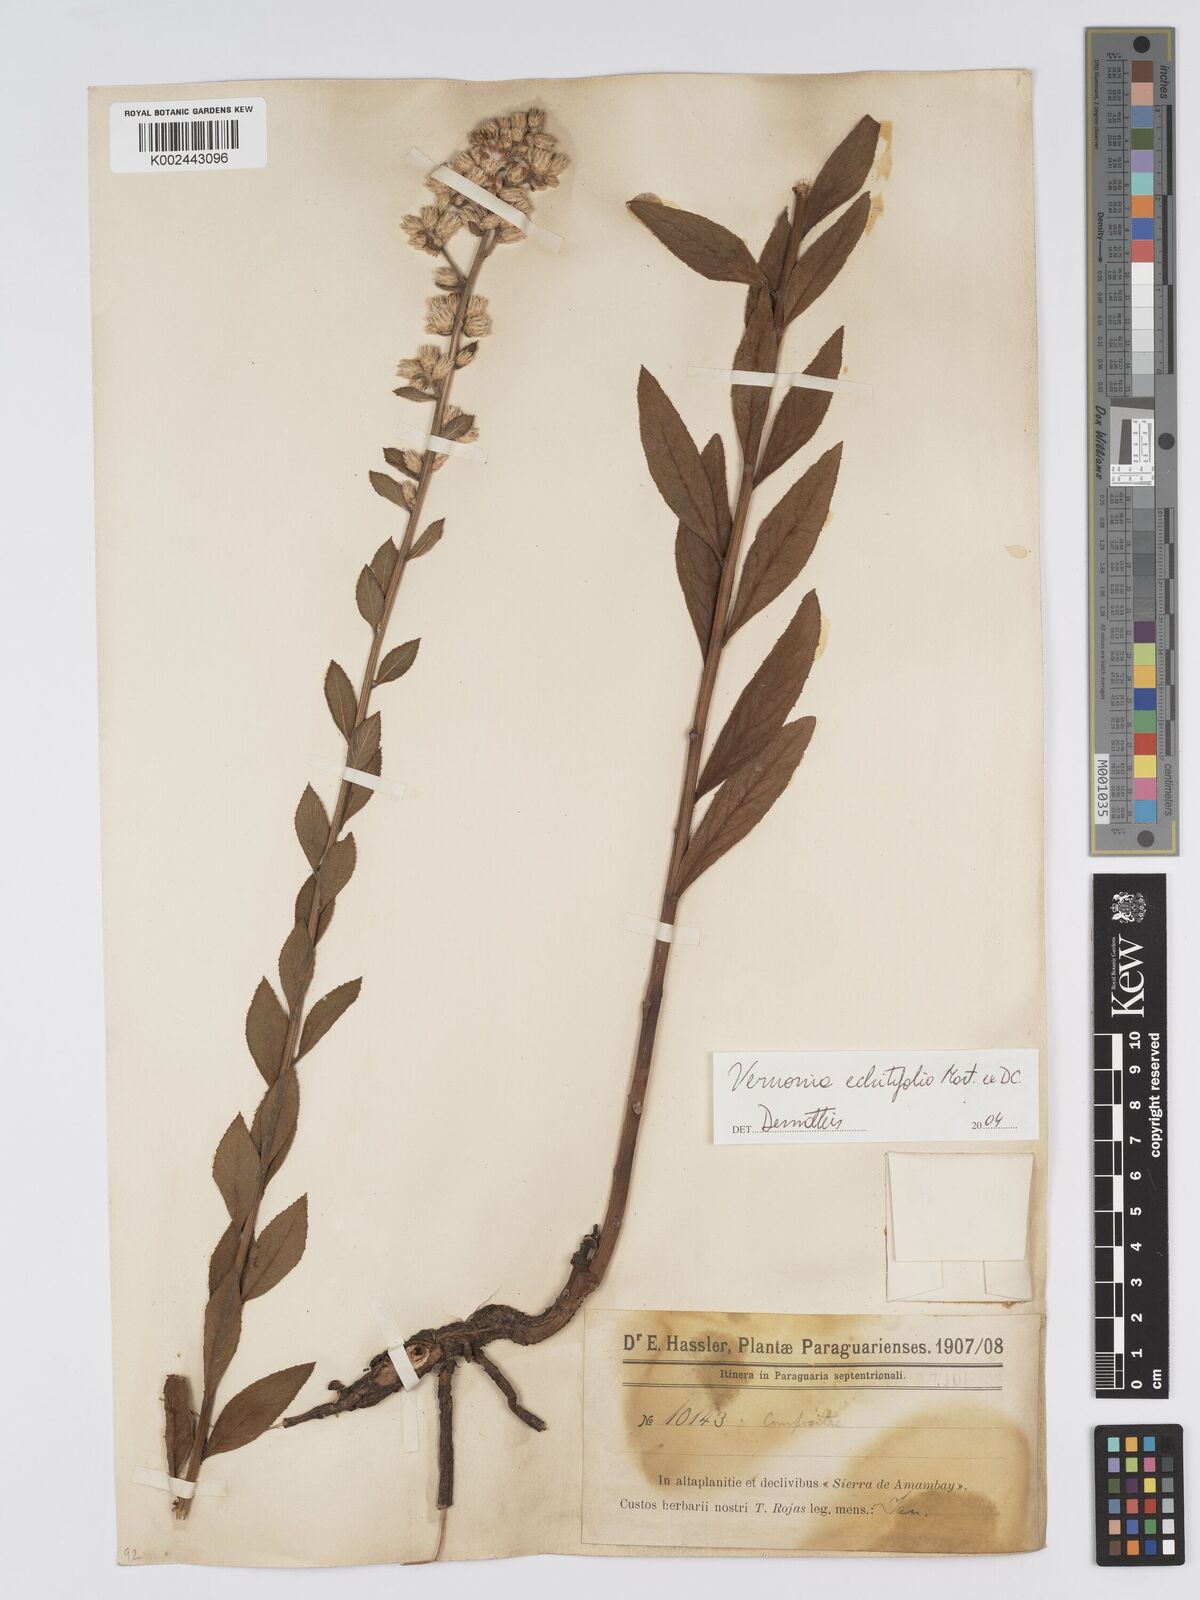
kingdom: Plantae
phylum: Tracheophyta
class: Magnoliopsida
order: Asterales
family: Asteraceae
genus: Acilepidopsis
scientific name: Acilepidopsis echitifolia
